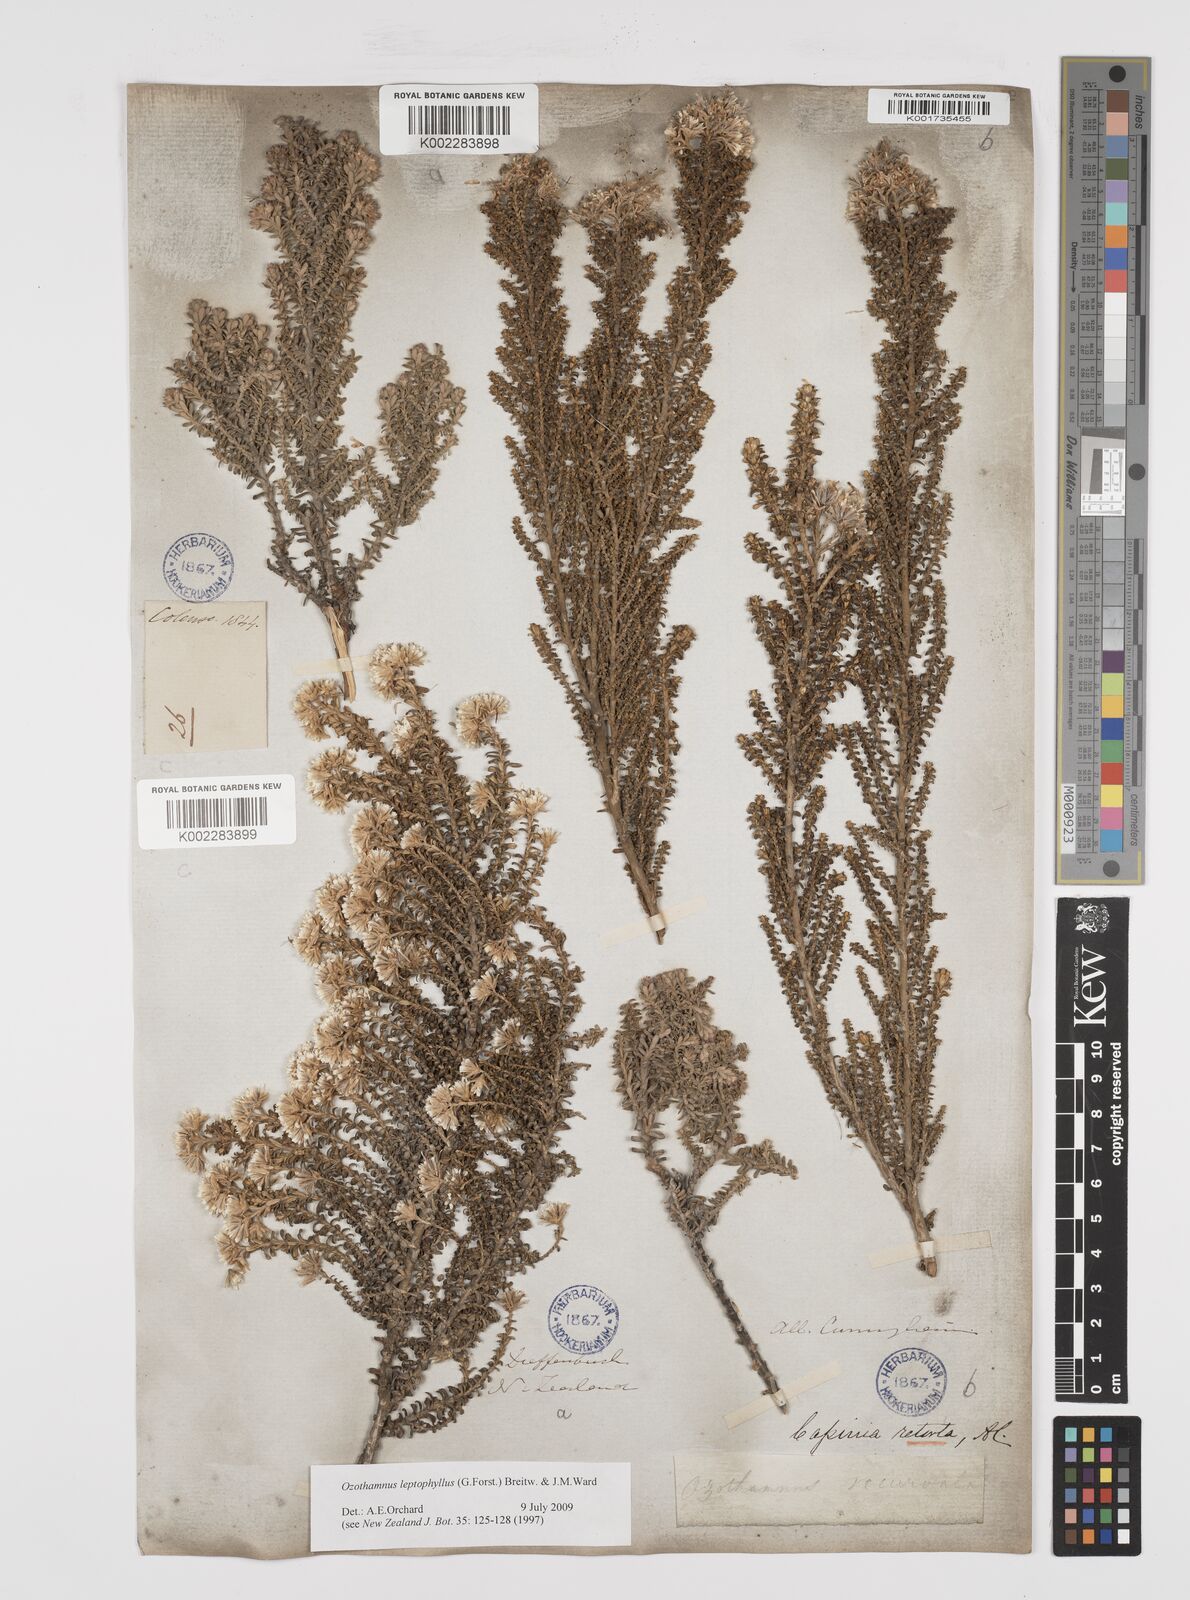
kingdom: Plantae
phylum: Tracheophyta
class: Magnoliopsida
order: Asterales
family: Asteraceae
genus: Ozothamnus
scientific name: Ozothamnus leptophyllus
